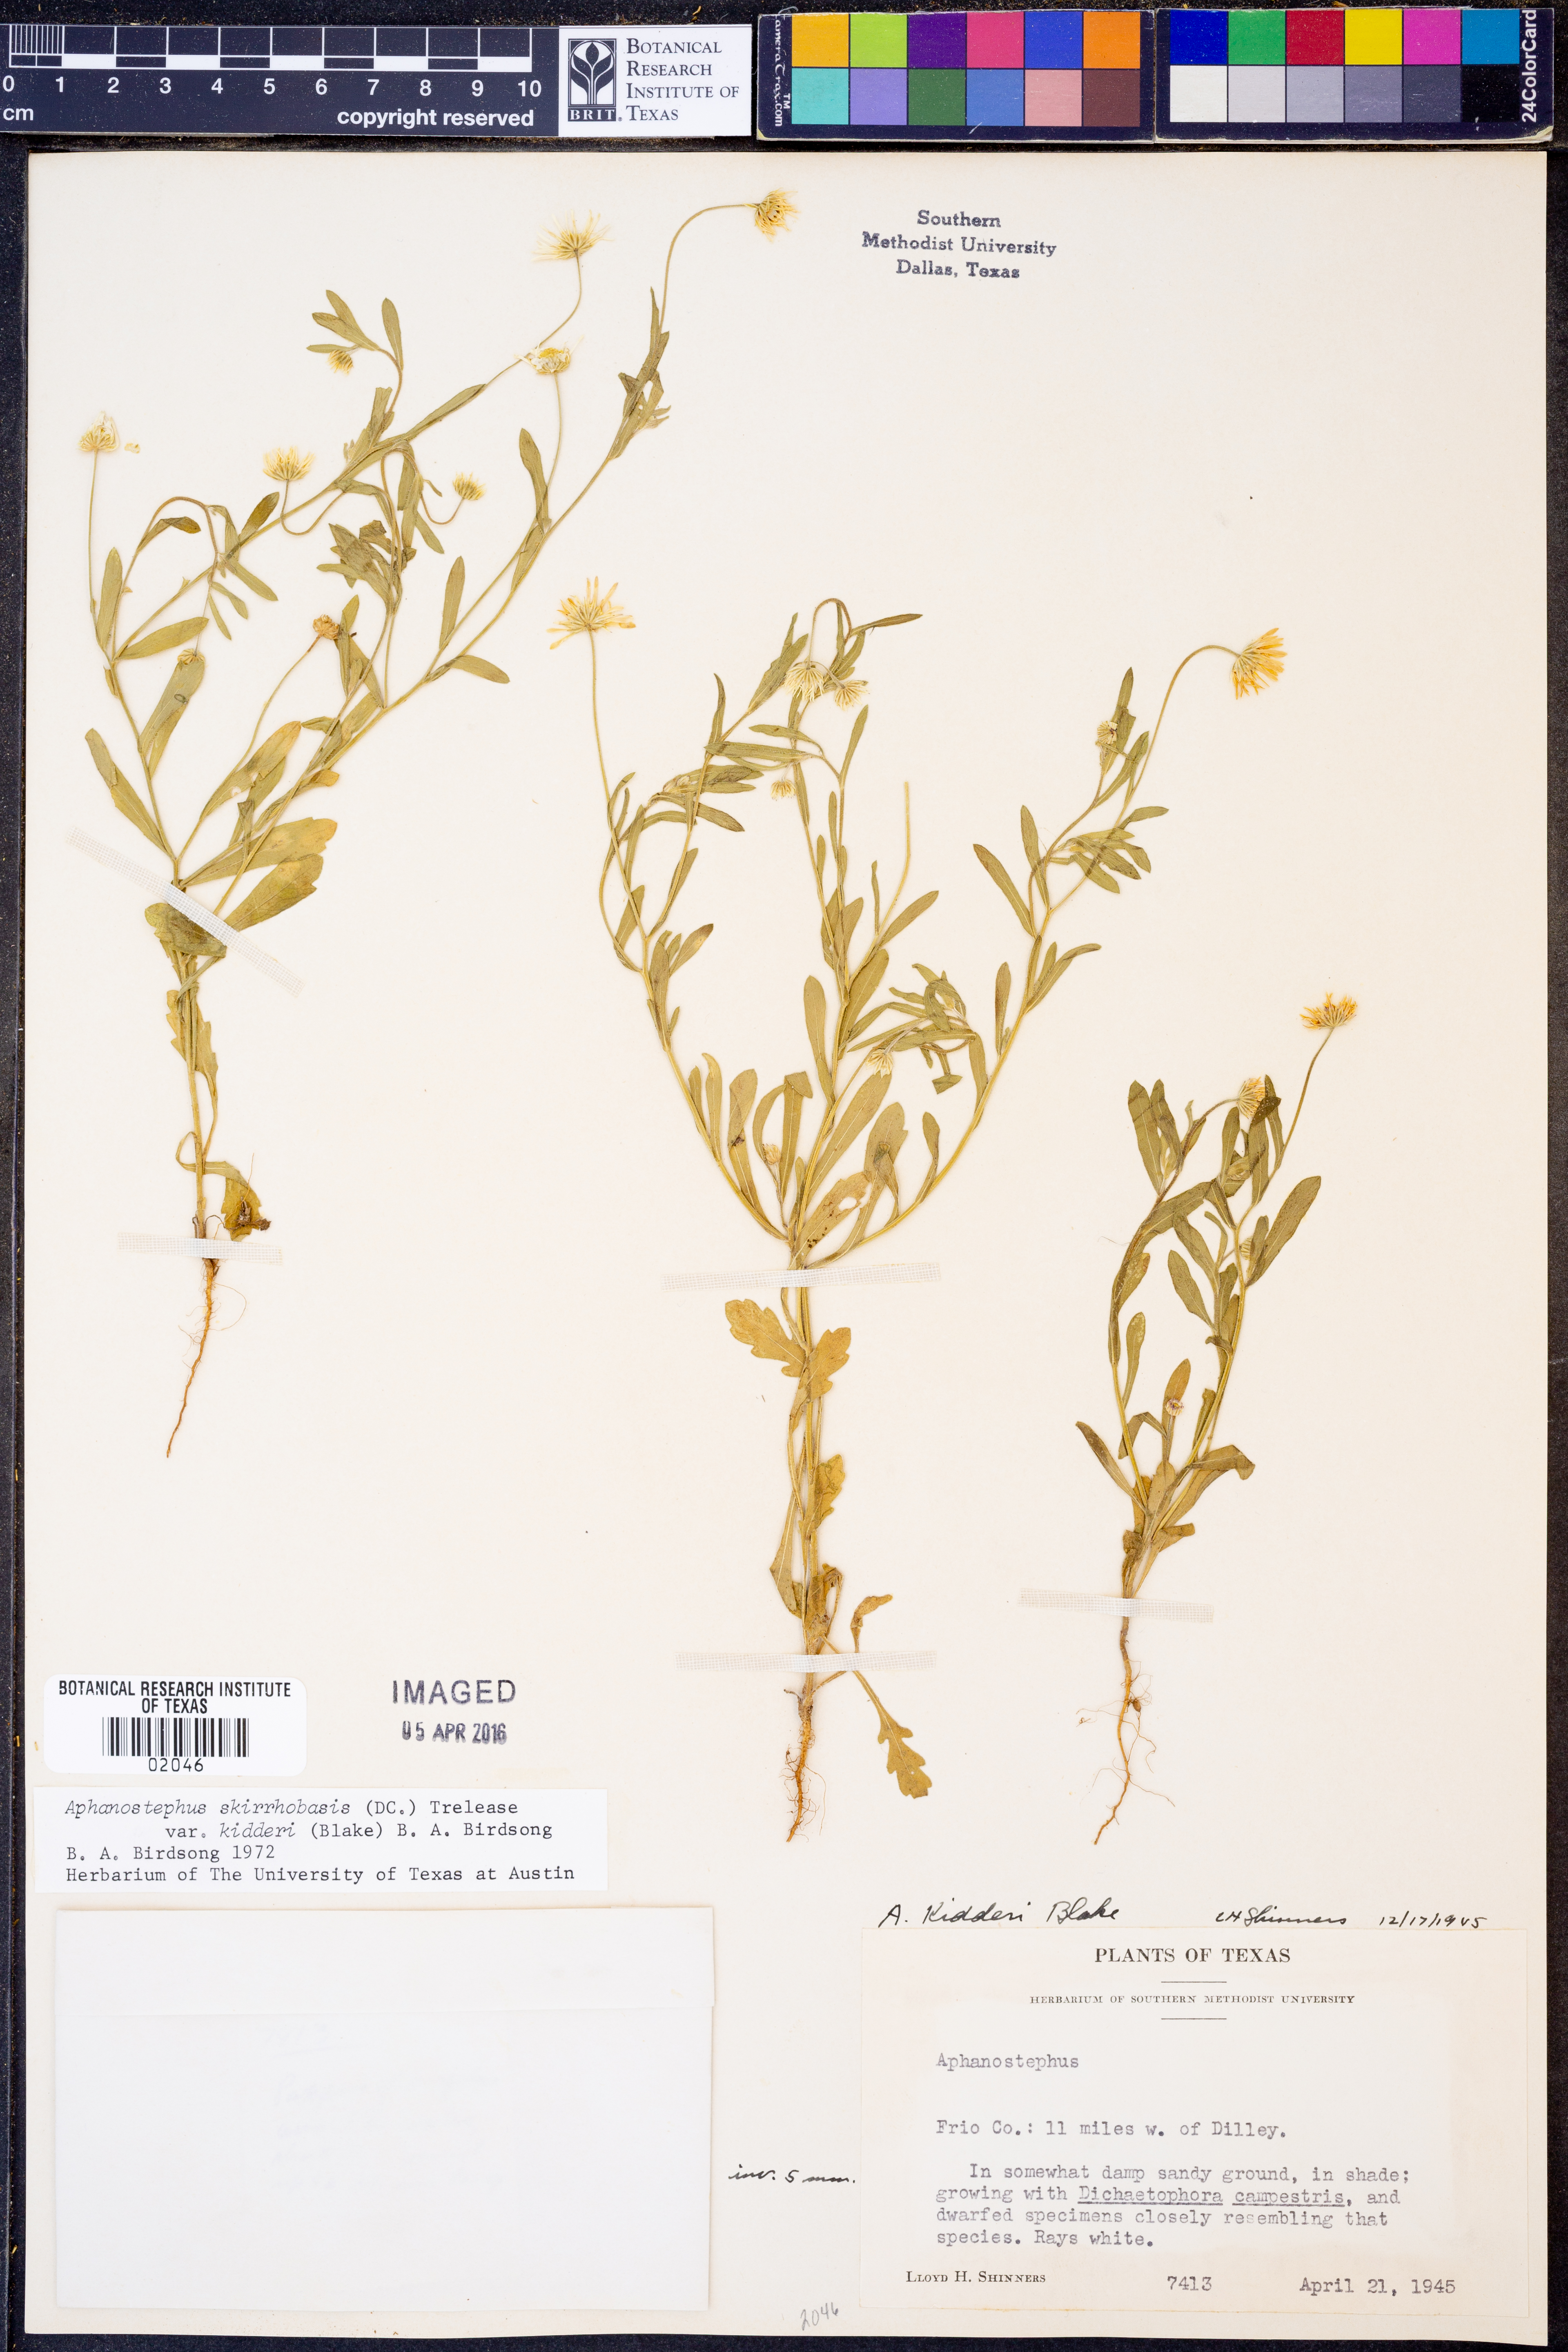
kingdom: Plantae
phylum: Tracheophyta
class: Magnoliopsida
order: Asterales
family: Asteraceae
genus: Aphanostephus
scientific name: Aphanostephus skirrhobasis
